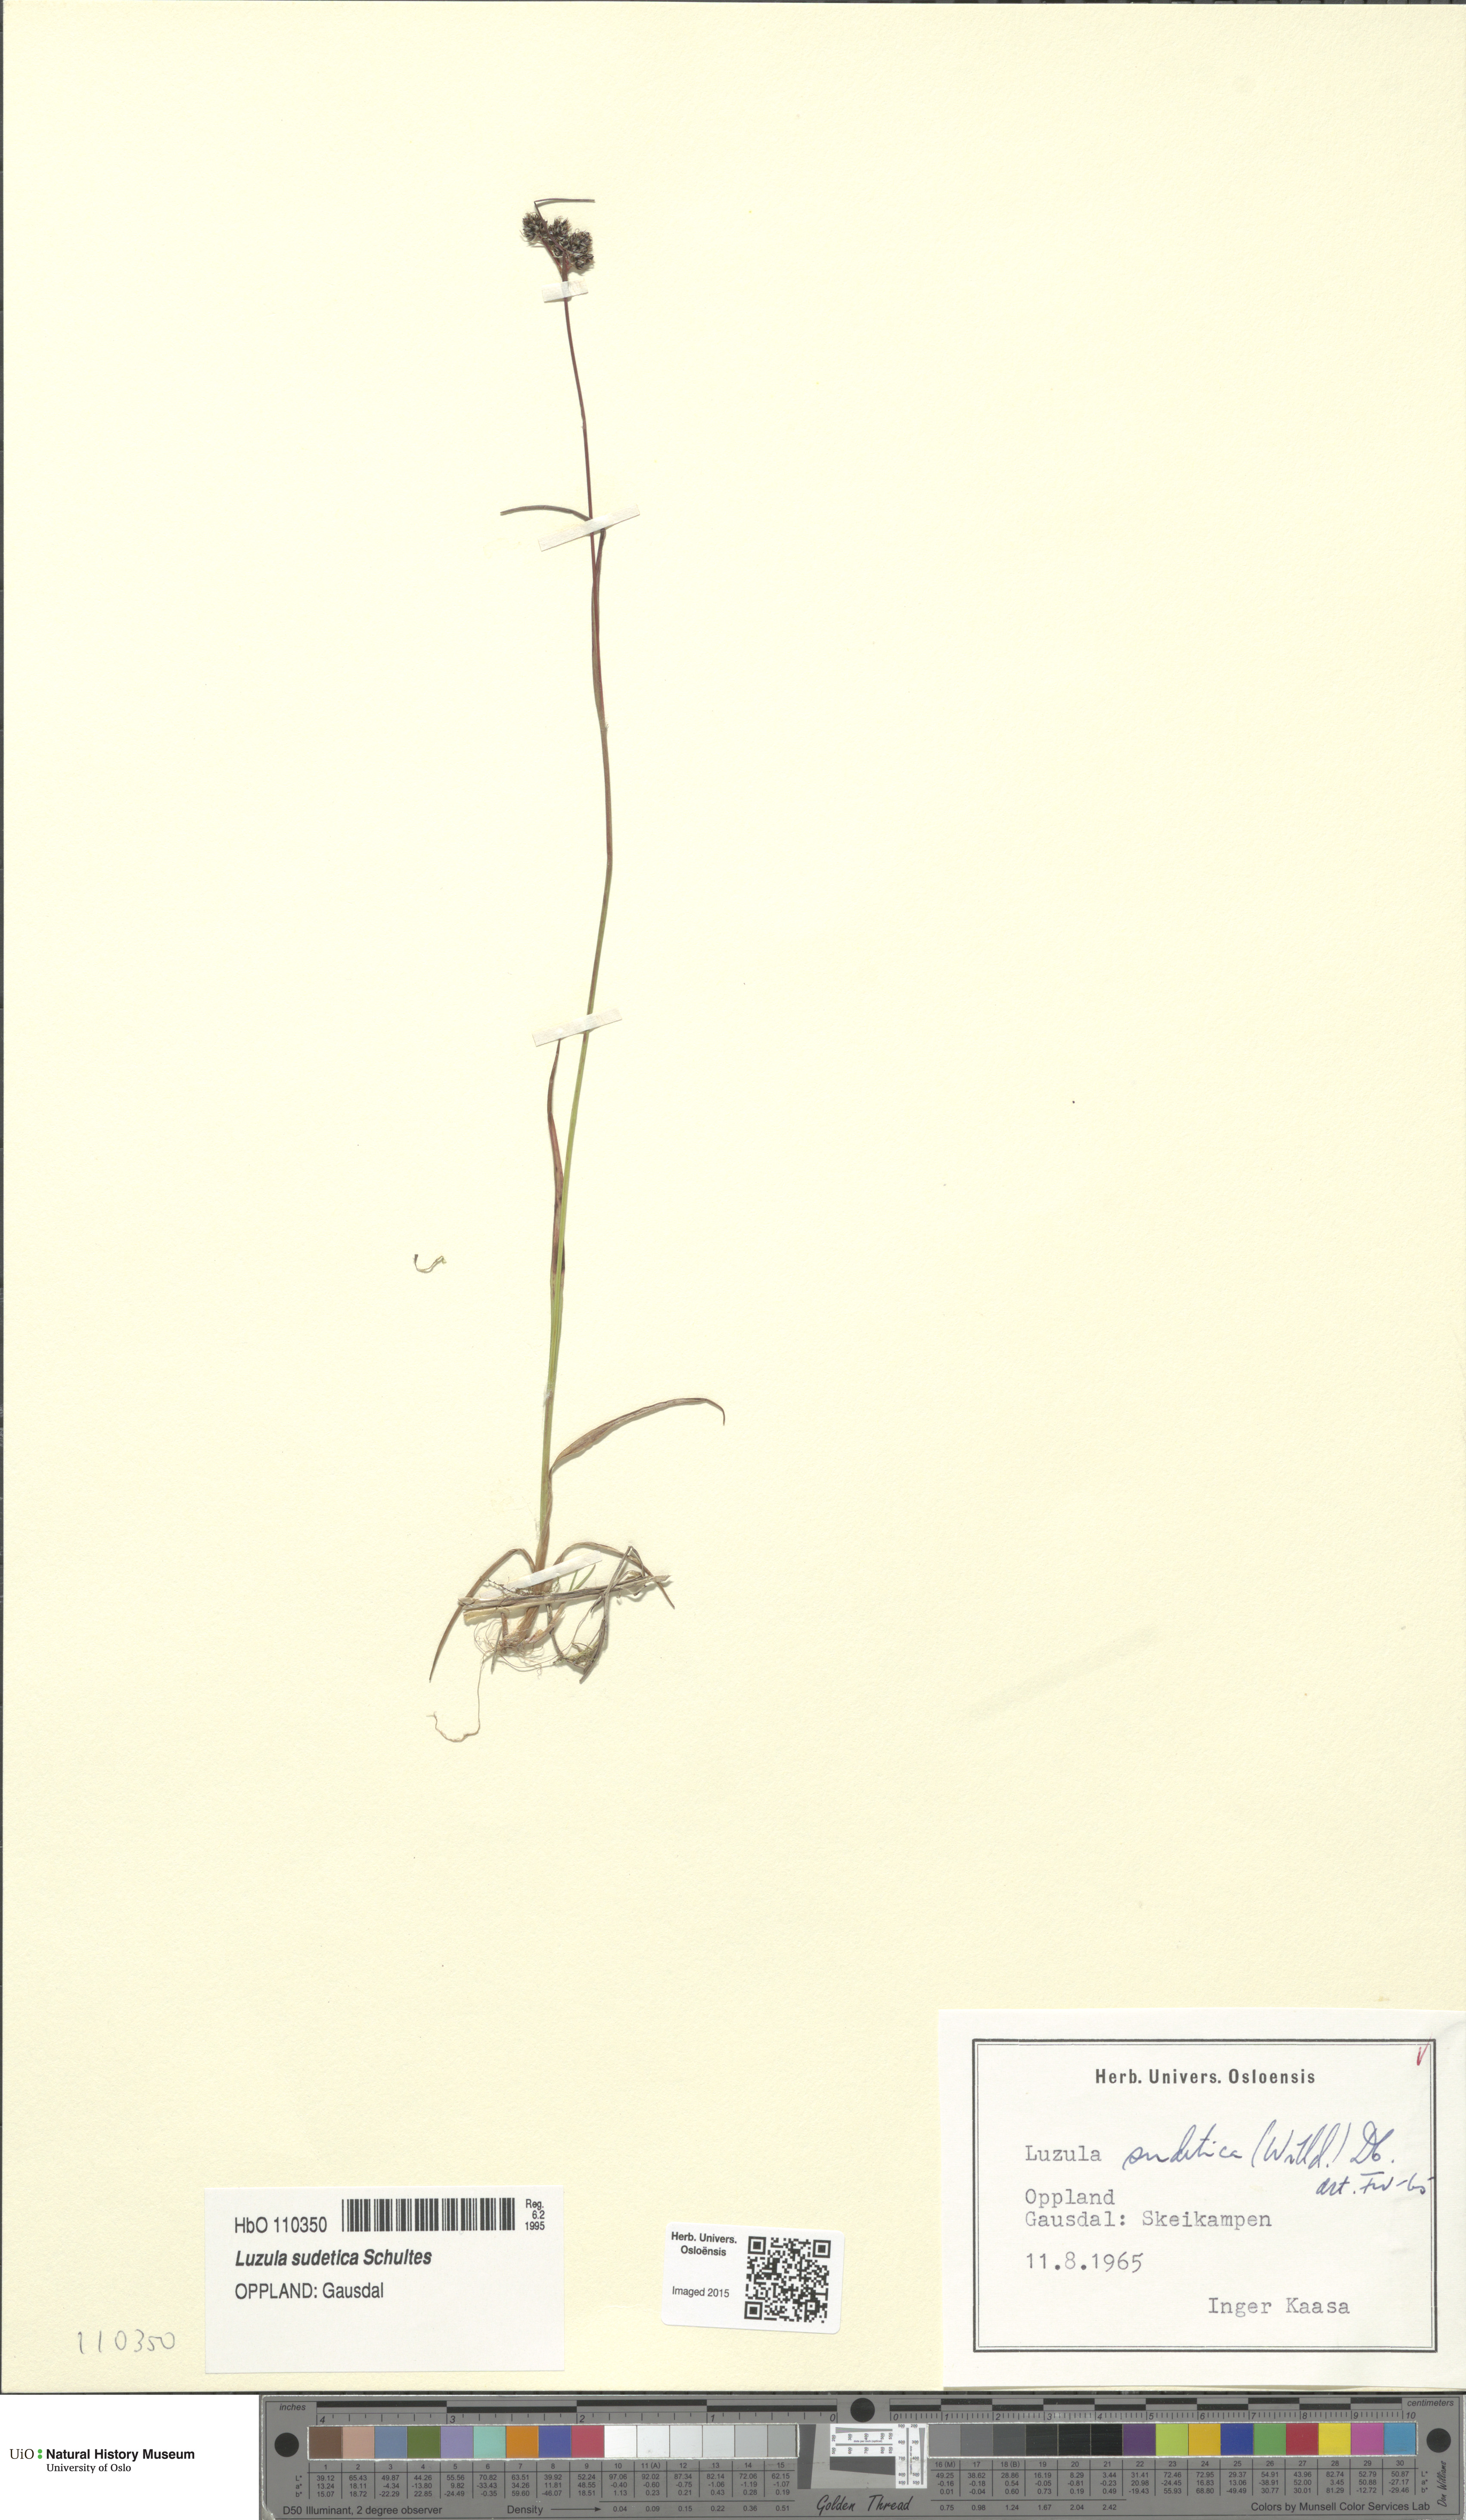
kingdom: Plantae
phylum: Tracheophyta
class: Liliopsida
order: Poales
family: Juncaceae
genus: Luzula
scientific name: Luzula sudetica
